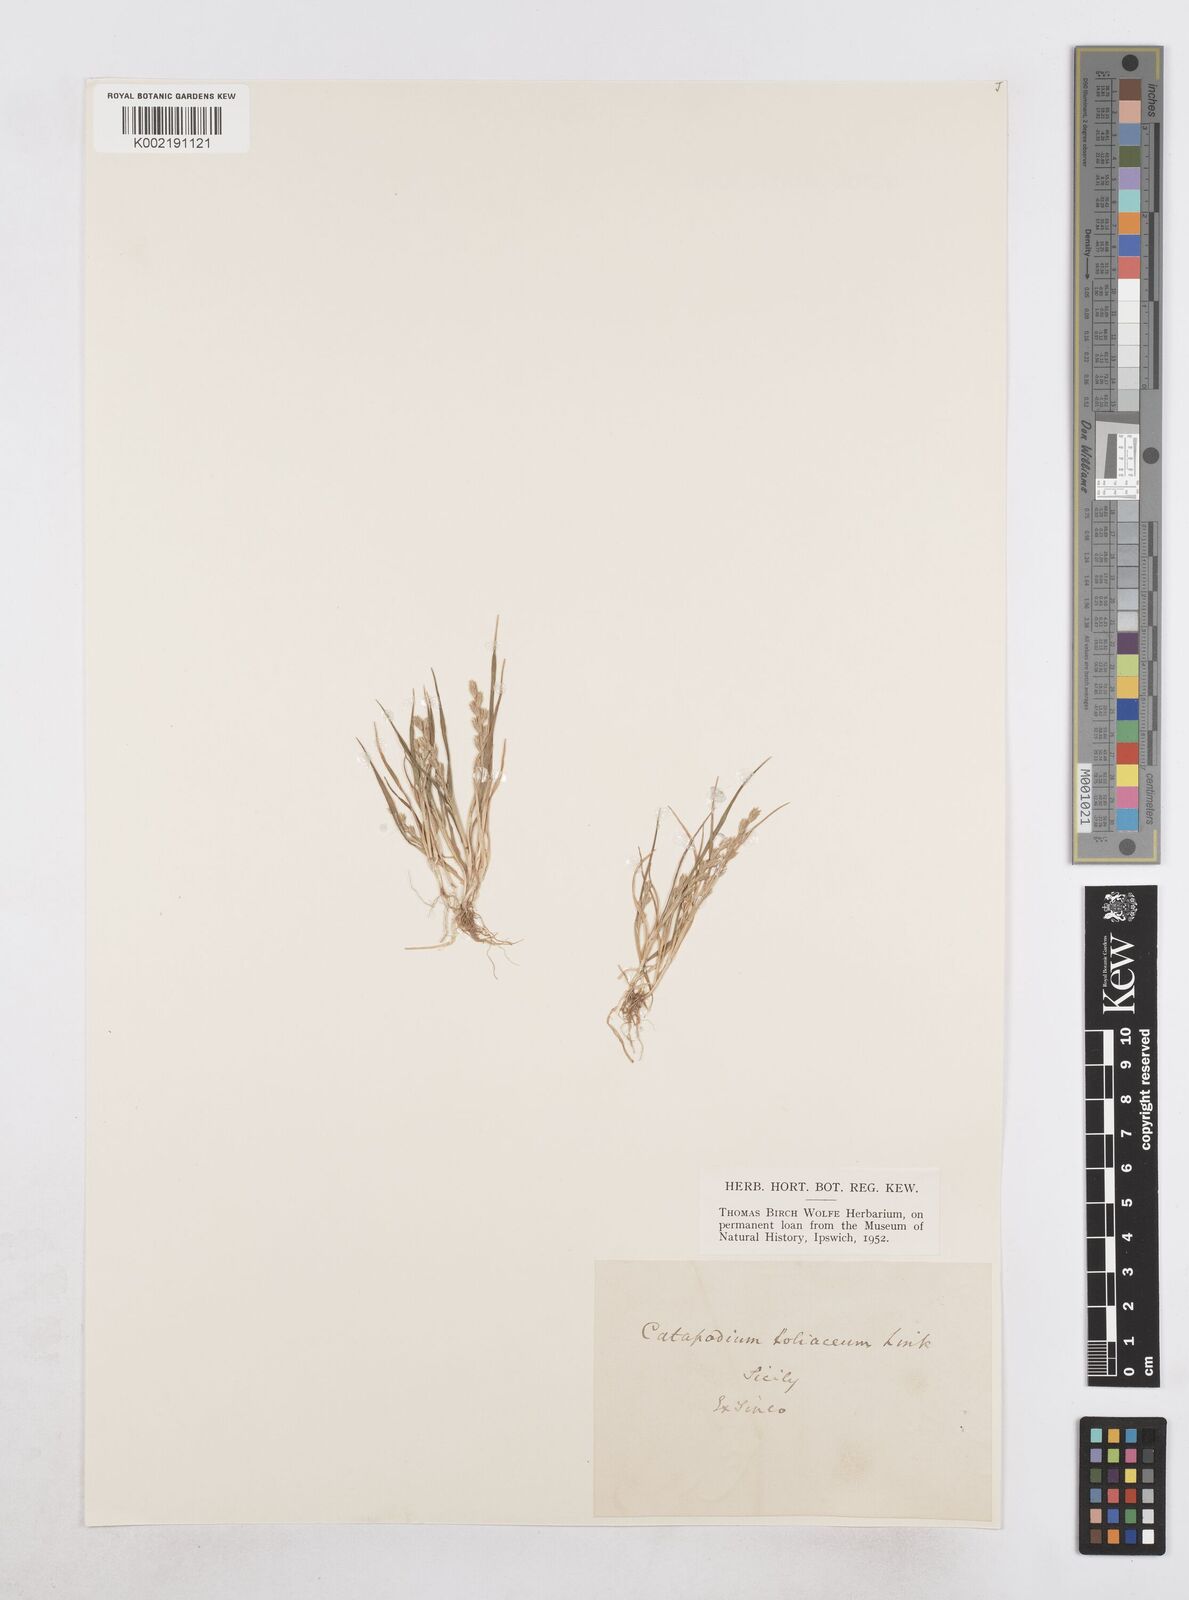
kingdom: Plantae
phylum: Tracheophyta
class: Liliopsida
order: Poales
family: Poaceae
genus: Catapodium
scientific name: Catapodium marinum
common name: Sea fern-grass
